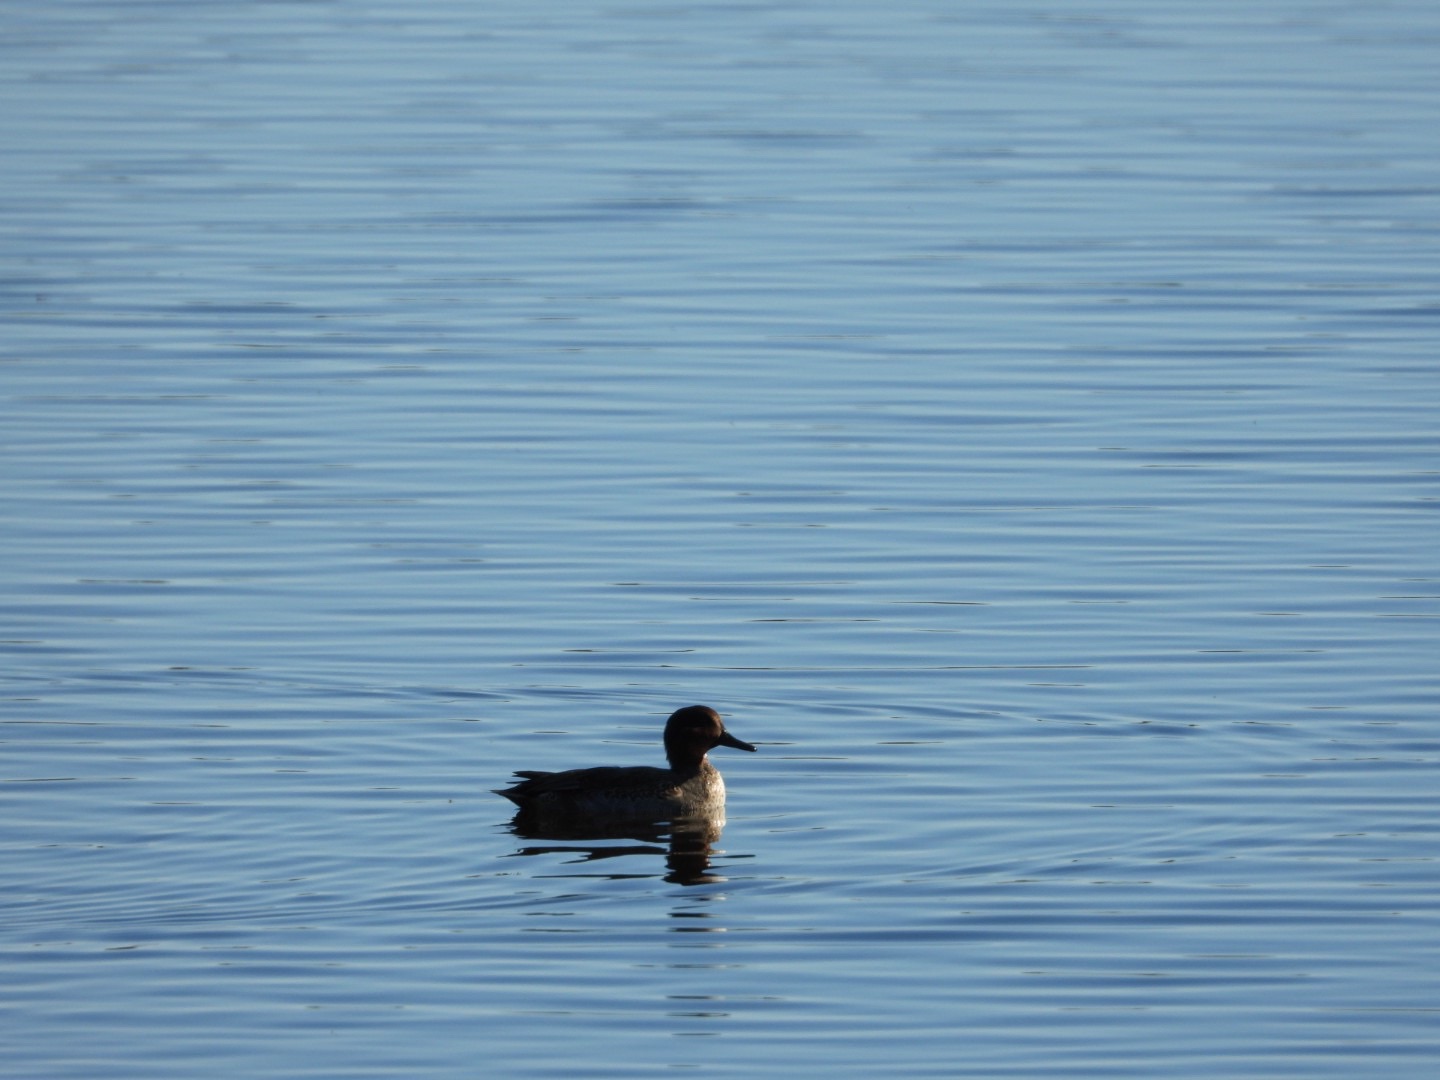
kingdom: Animalia
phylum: Chordata
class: Aves
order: Anseriformes
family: Anatidae
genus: Anas
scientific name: Anas crecca
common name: Krikand
